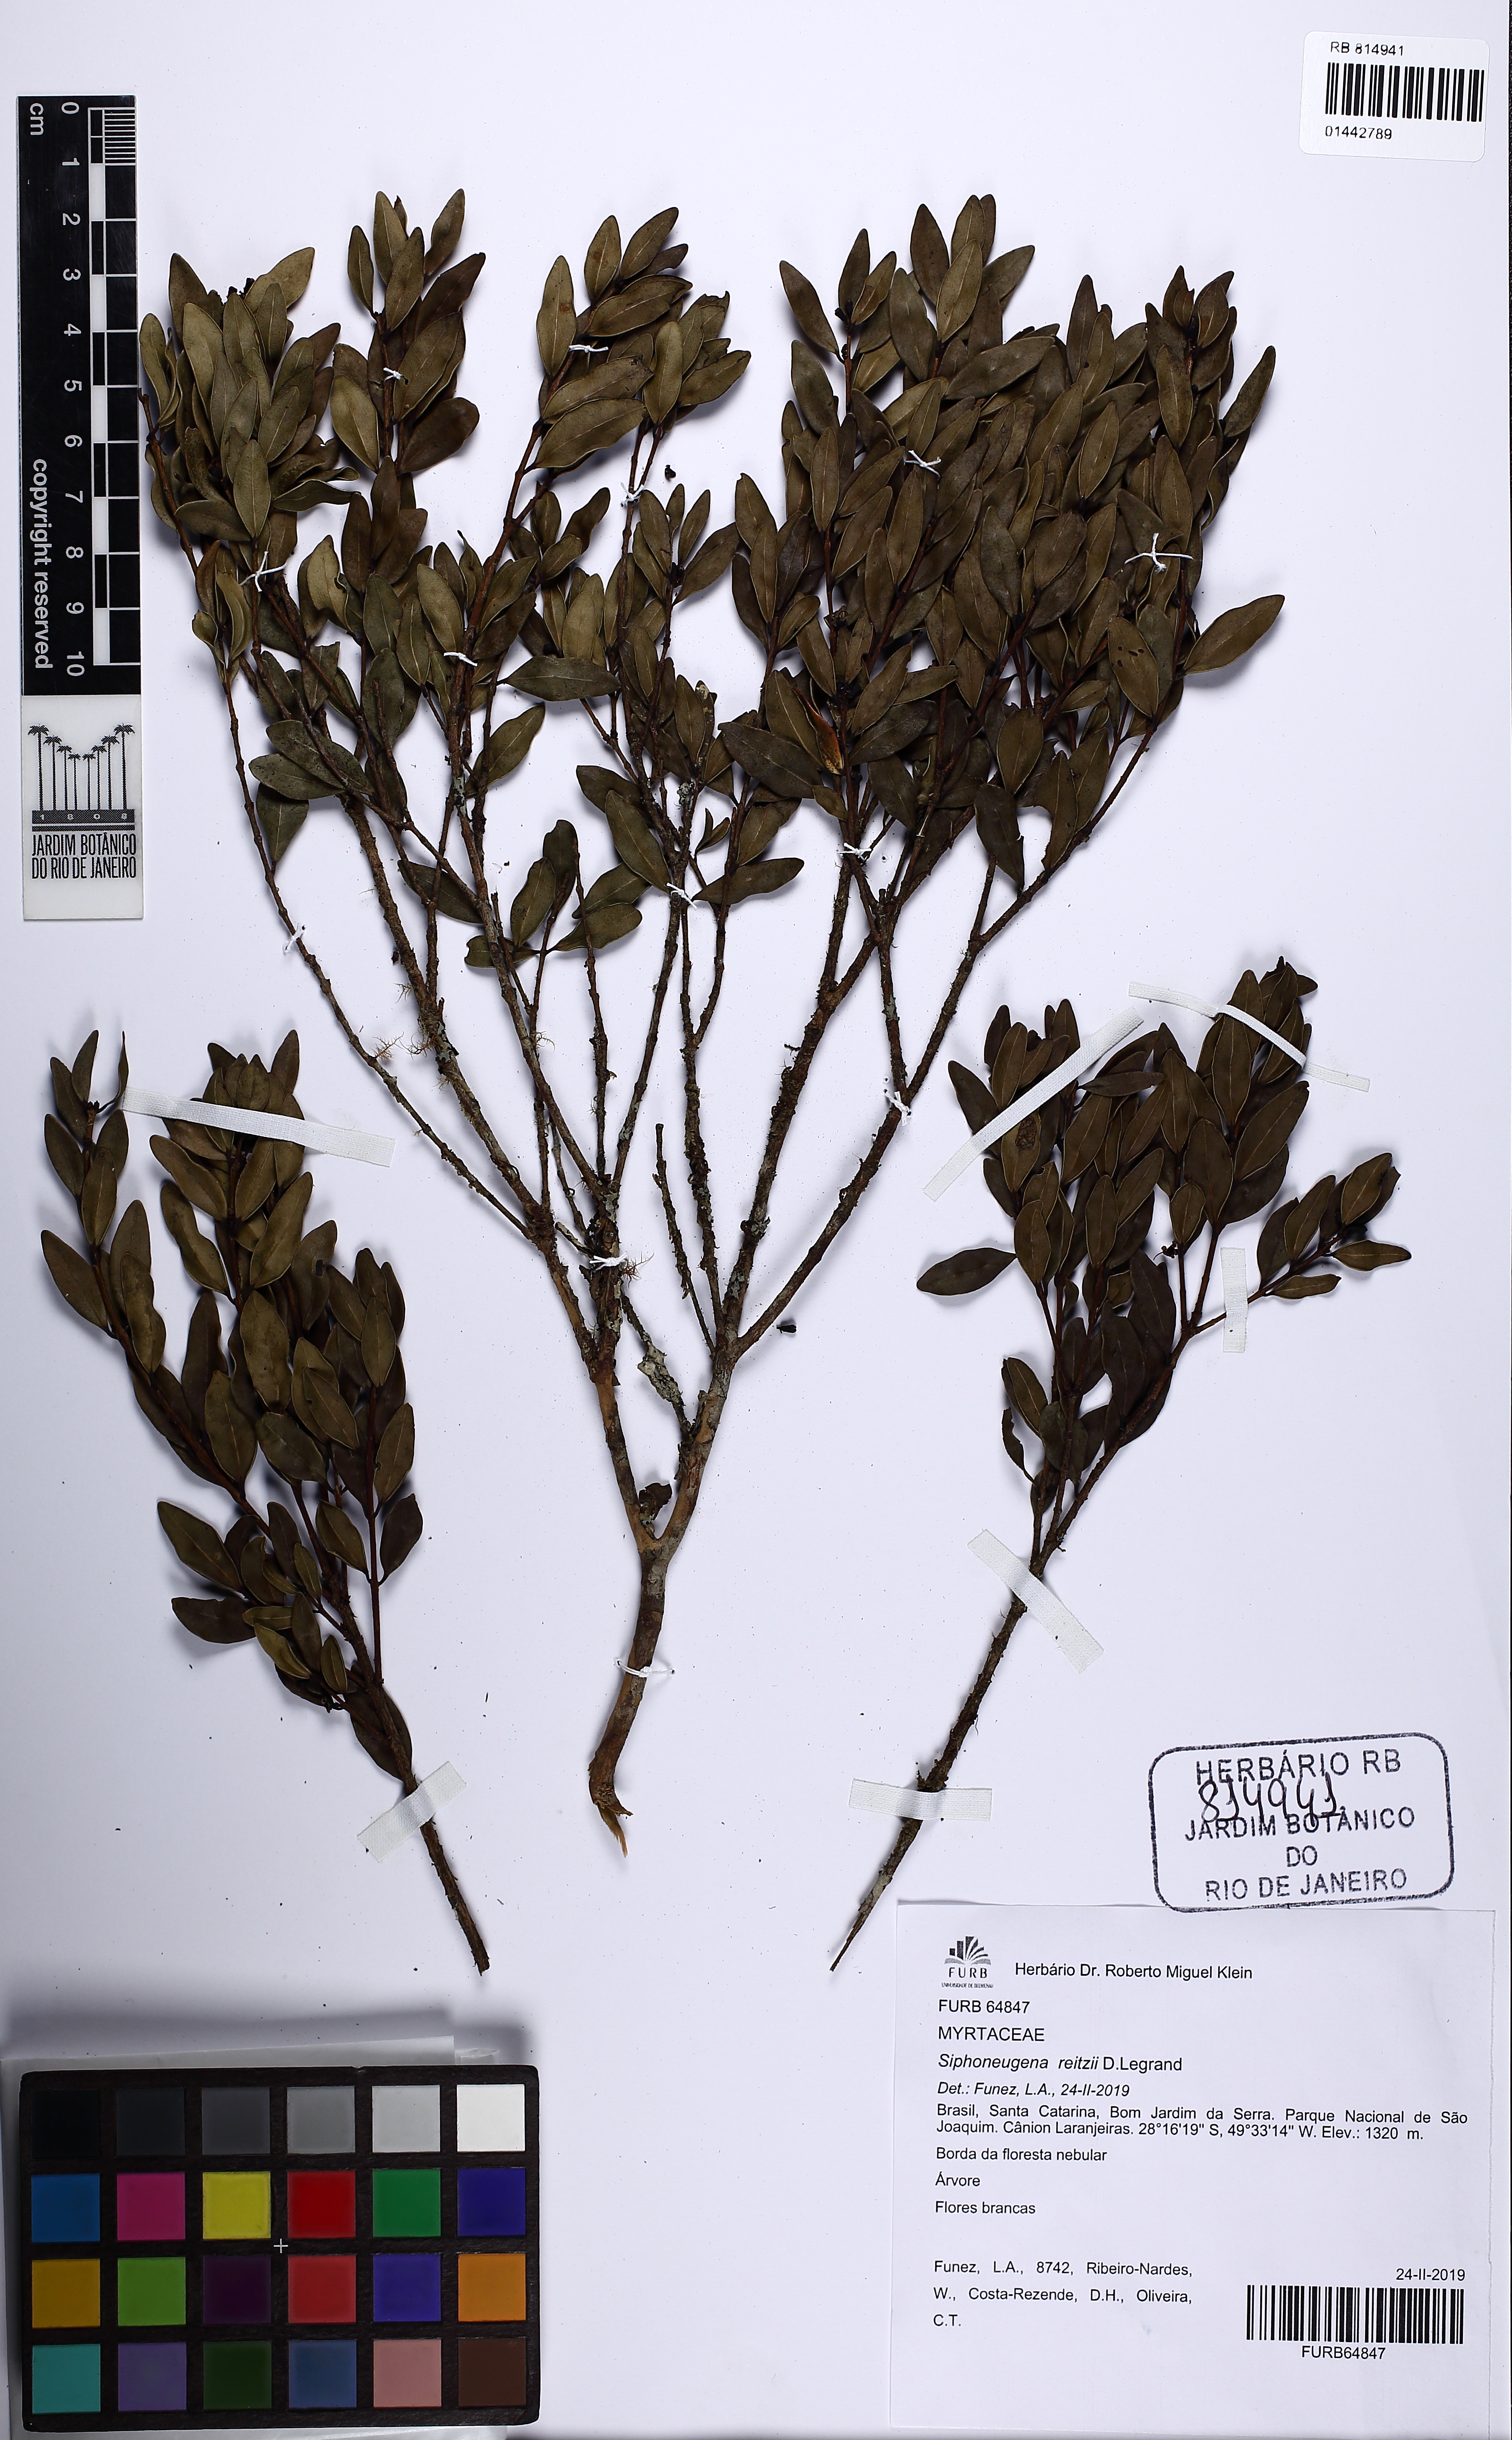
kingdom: Plantae
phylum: Tracheophyta
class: Magnoliopsida
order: Myrtales
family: Myrtaceae
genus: Siphoneugena
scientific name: Siphoneugena reitzii
